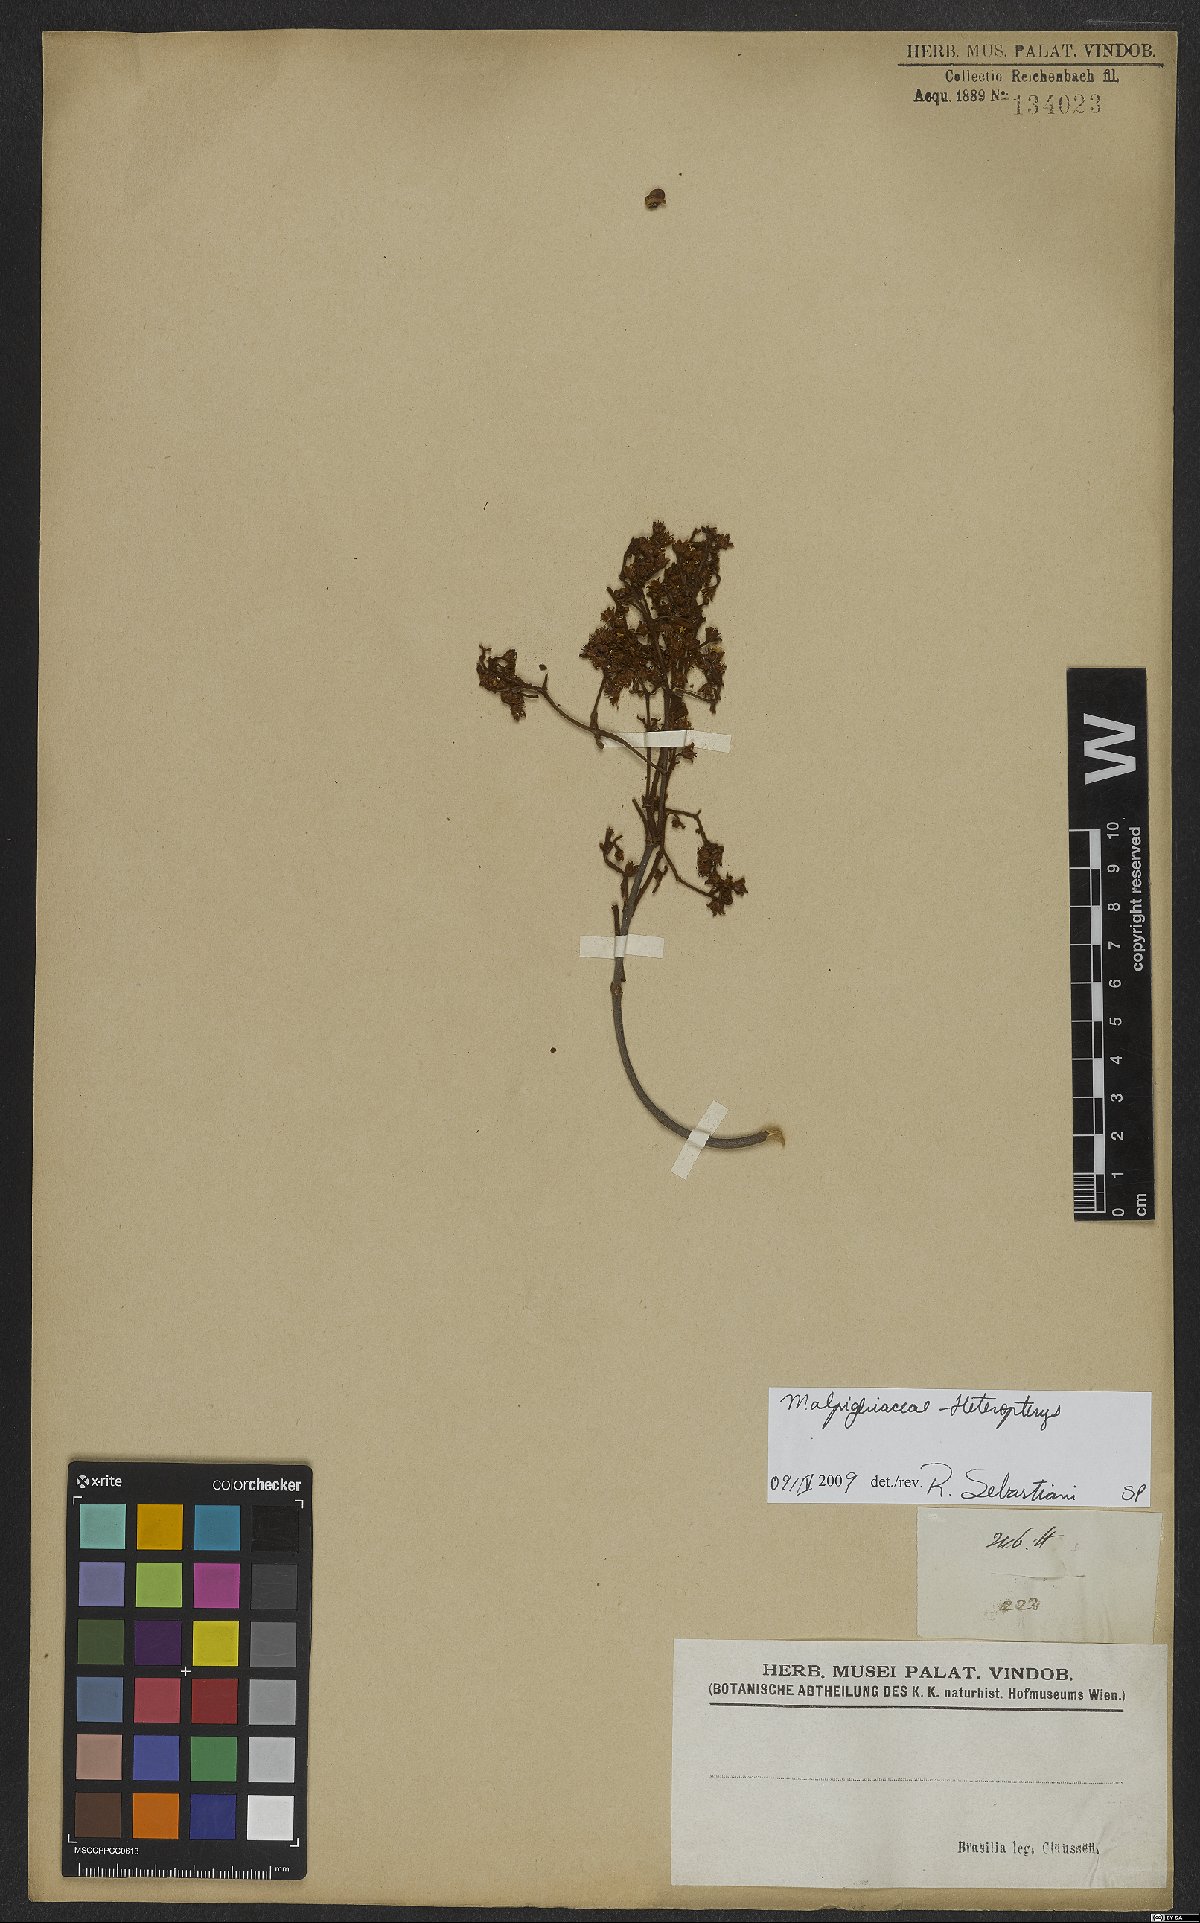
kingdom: Plantae
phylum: Tracheophyta
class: Magnoliopsida
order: Malpighiales
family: Malpighiaceae
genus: Heteropterys
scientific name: Heteropterys
